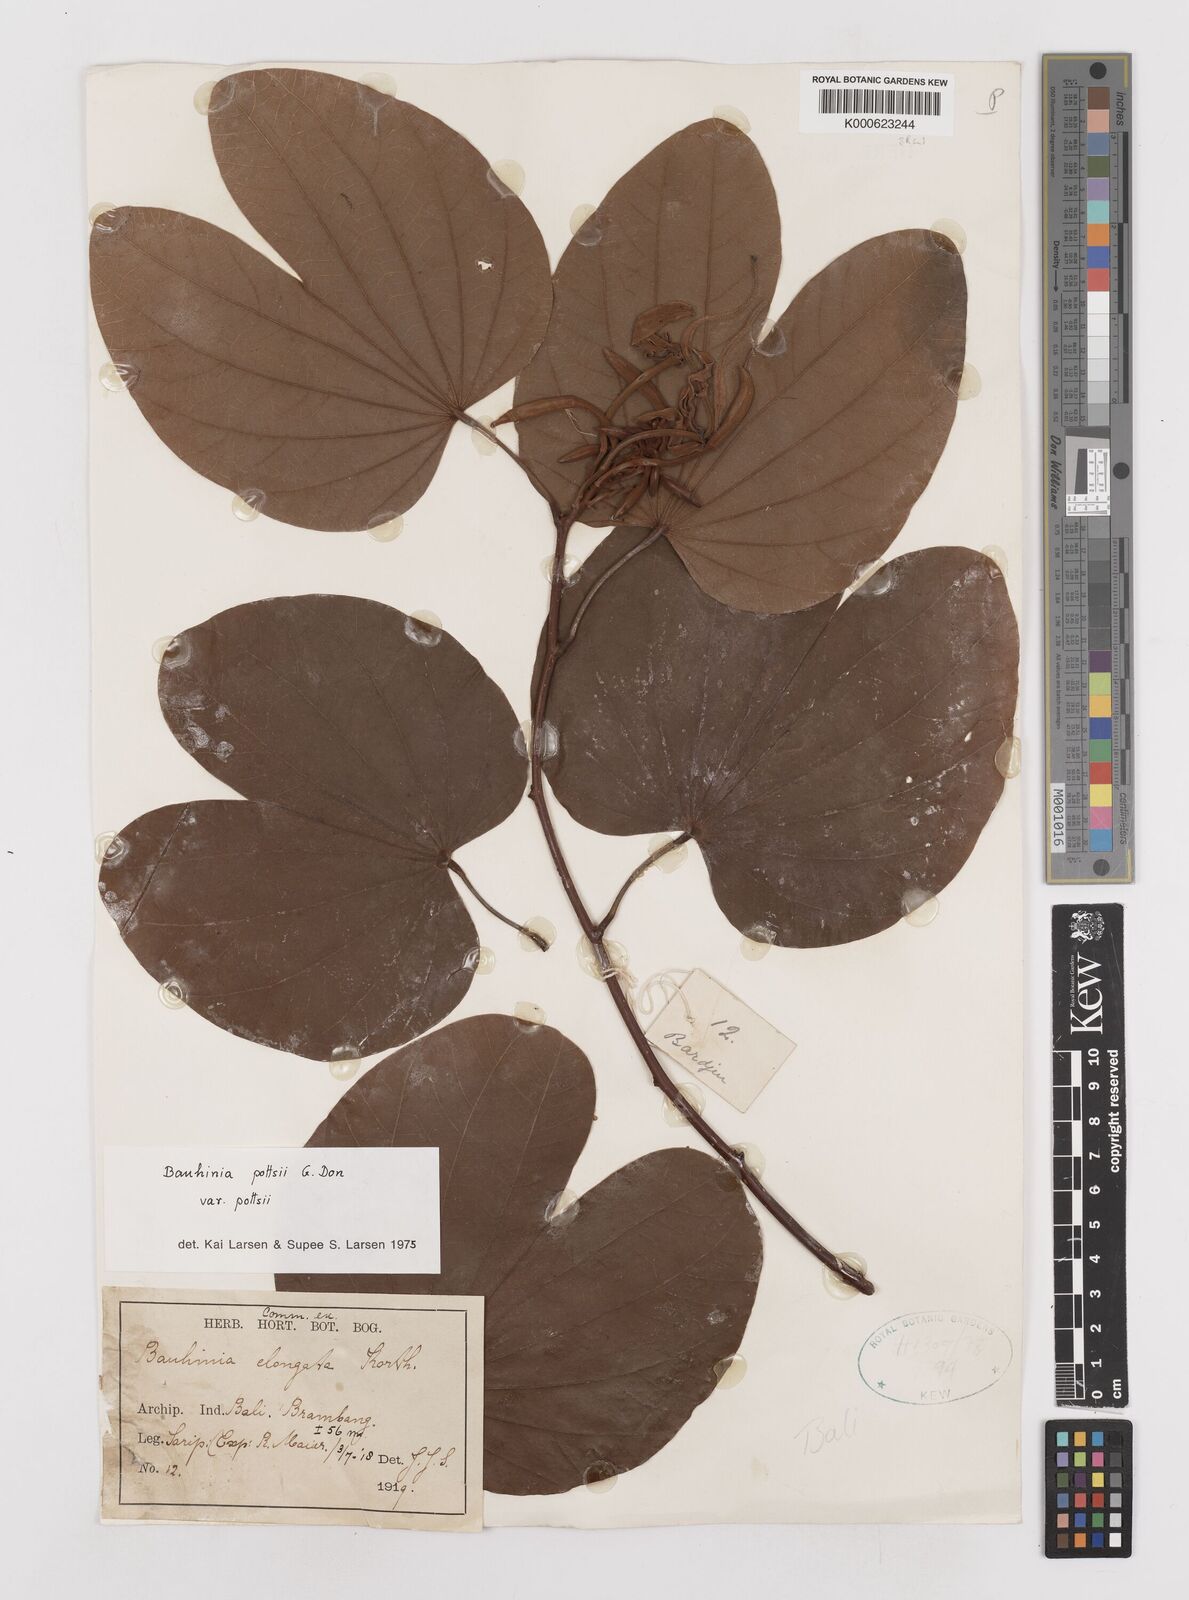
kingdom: Plantae
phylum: Tracheophyta
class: Magnoliopsida
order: Fabales
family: Fabaceae
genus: Bauhinia
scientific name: Bauhinia
